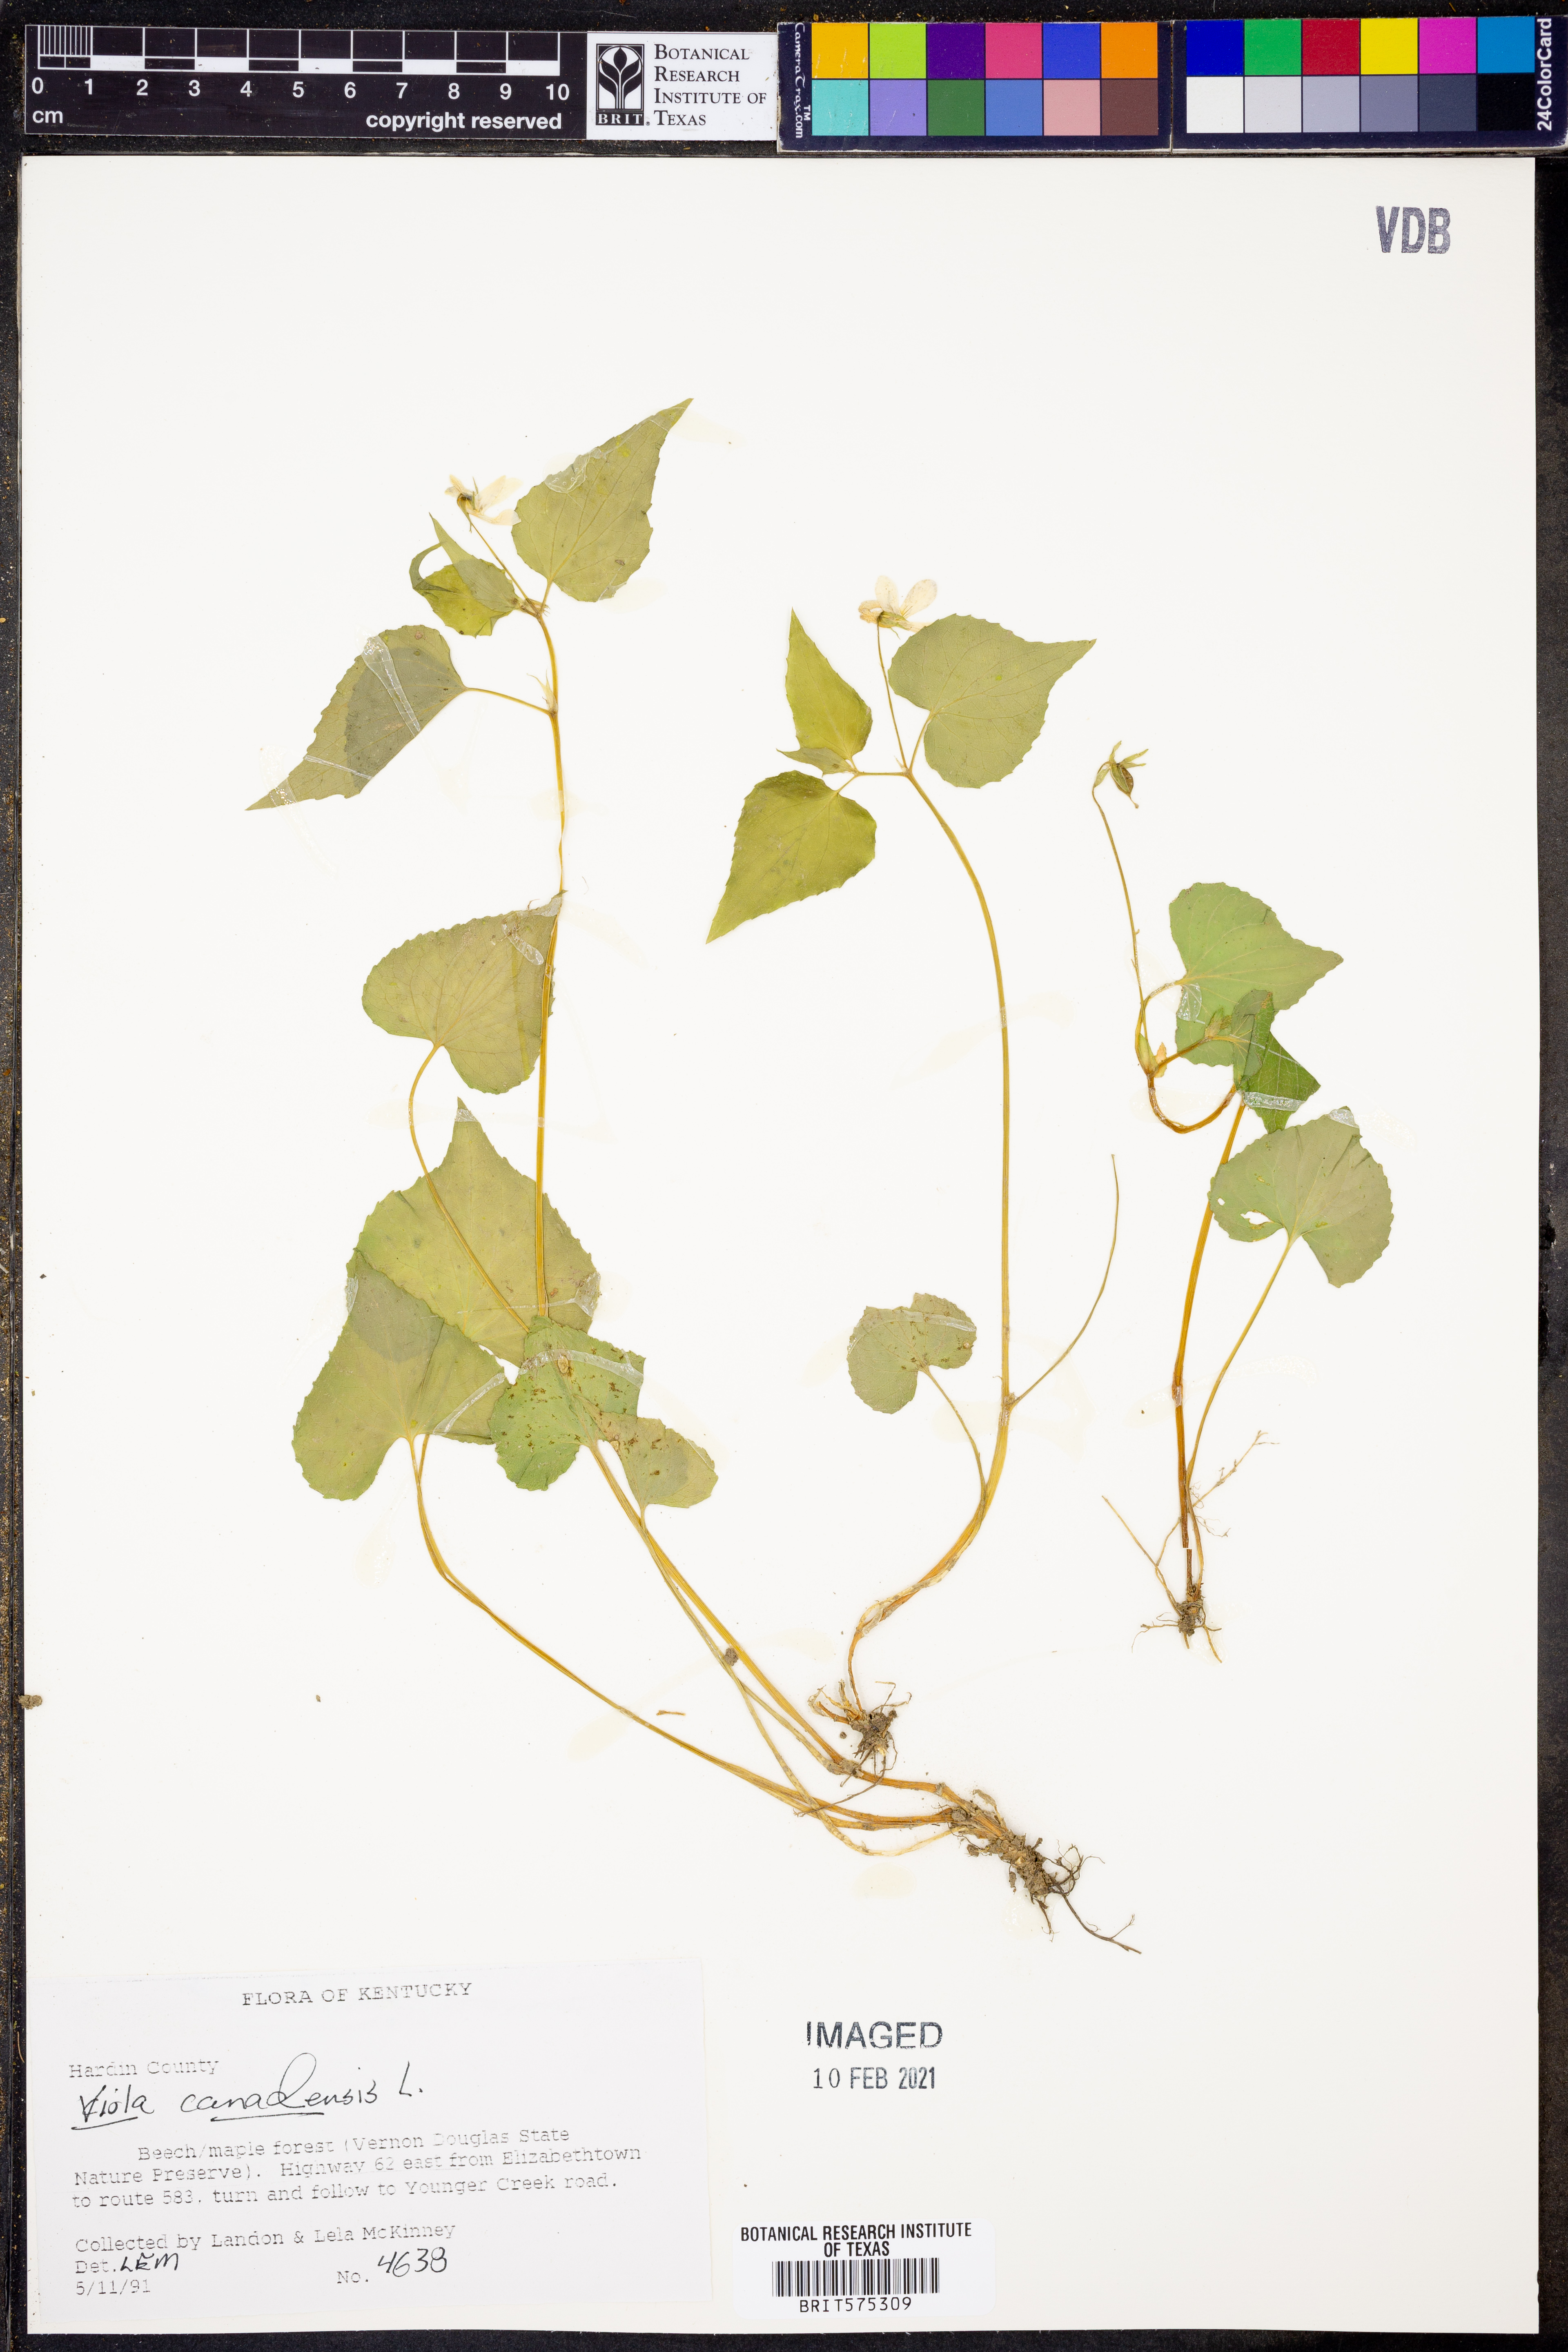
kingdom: Plantae
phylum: Tracheophyta
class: Magnoliopsida
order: Malpighiales
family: Violaceae
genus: Viola
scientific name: Viola canadensis
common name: Canada violet
